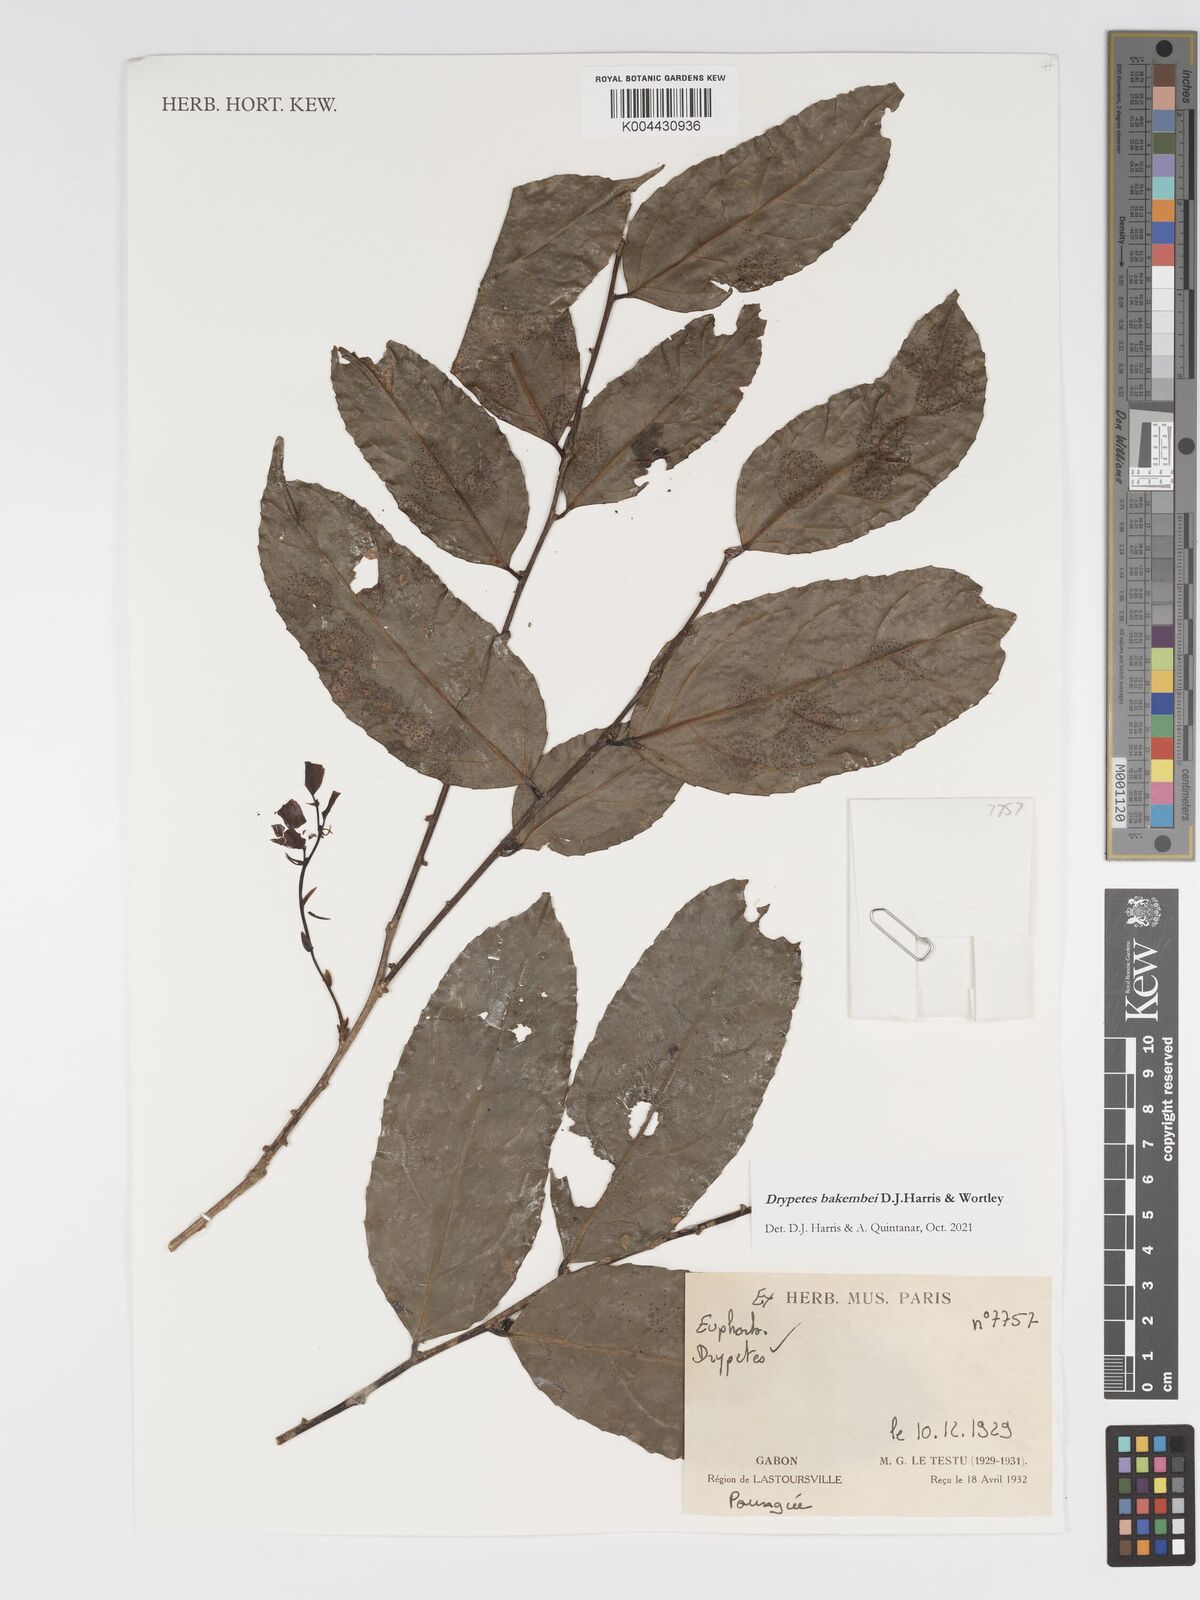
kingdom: Plantae
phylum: Tracheophyta
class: Magnoliopsida
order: Malpighiales
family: Putranjivaceae
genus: Drypetes
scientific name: Drypetes bakembei
